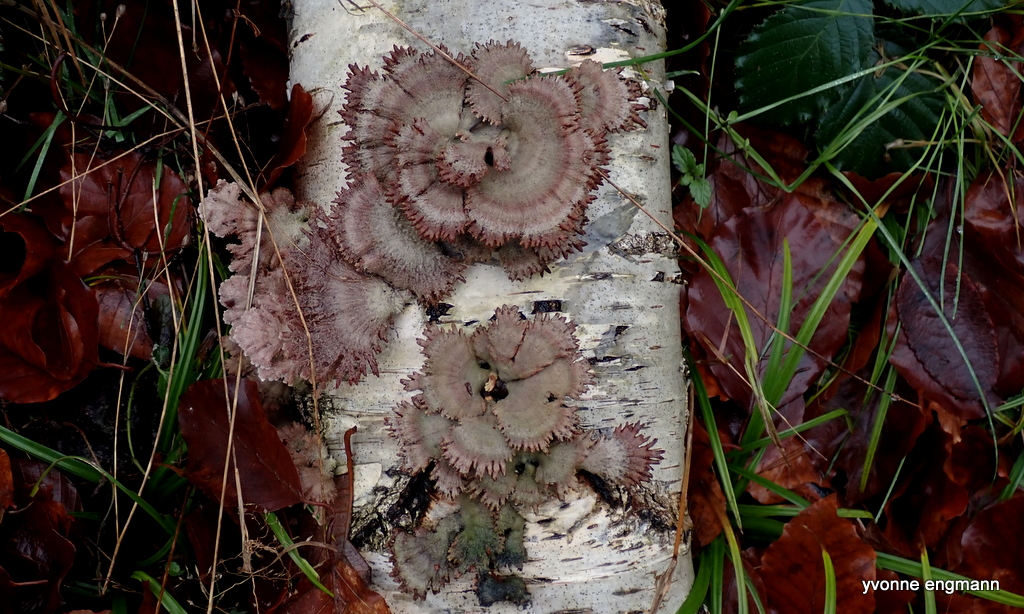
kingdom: Fungi
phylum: Basidiomycota
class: Agaricomycetes
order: Agaricales
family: Schizophyllaceae
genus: Schizophyllum
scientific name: Schizophyllum commune
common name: kløvblad
